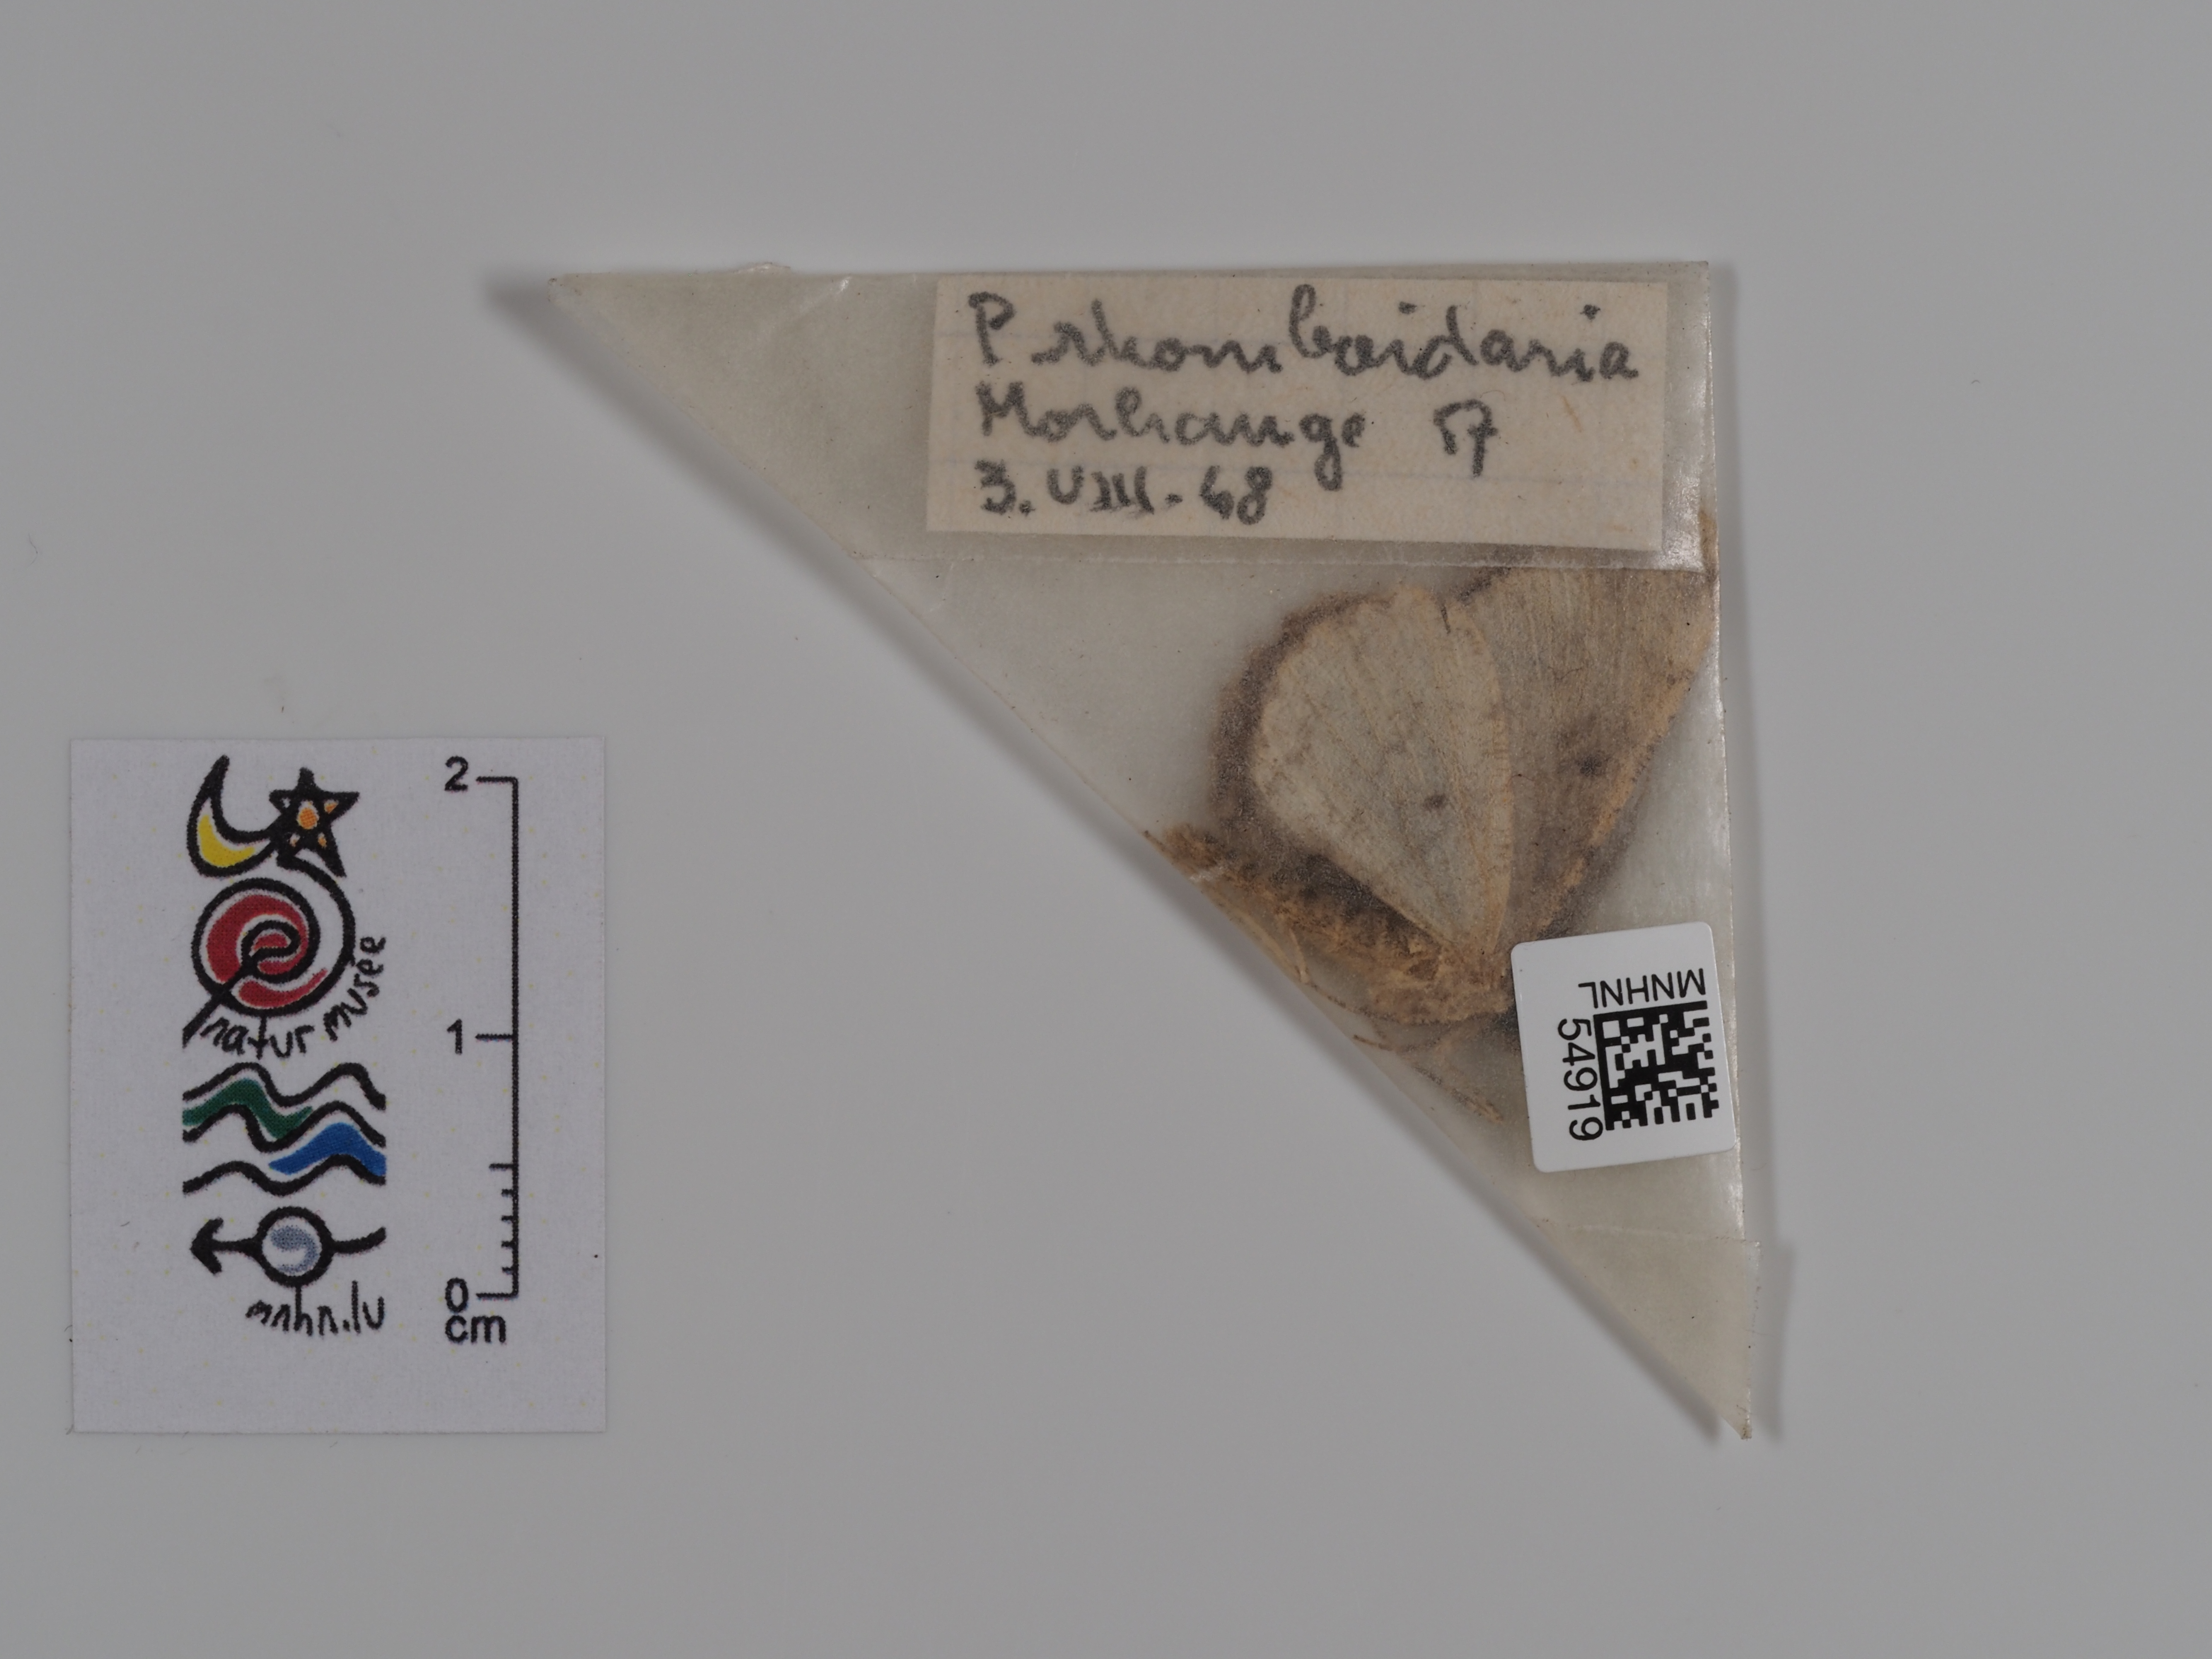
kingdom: Animalia
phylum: Arthropoda
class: Insecta
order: Lepidoptera
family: Geometridae
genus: Peribatodes
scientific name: Peribatodes rhomboidaria
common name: Willow beauty
